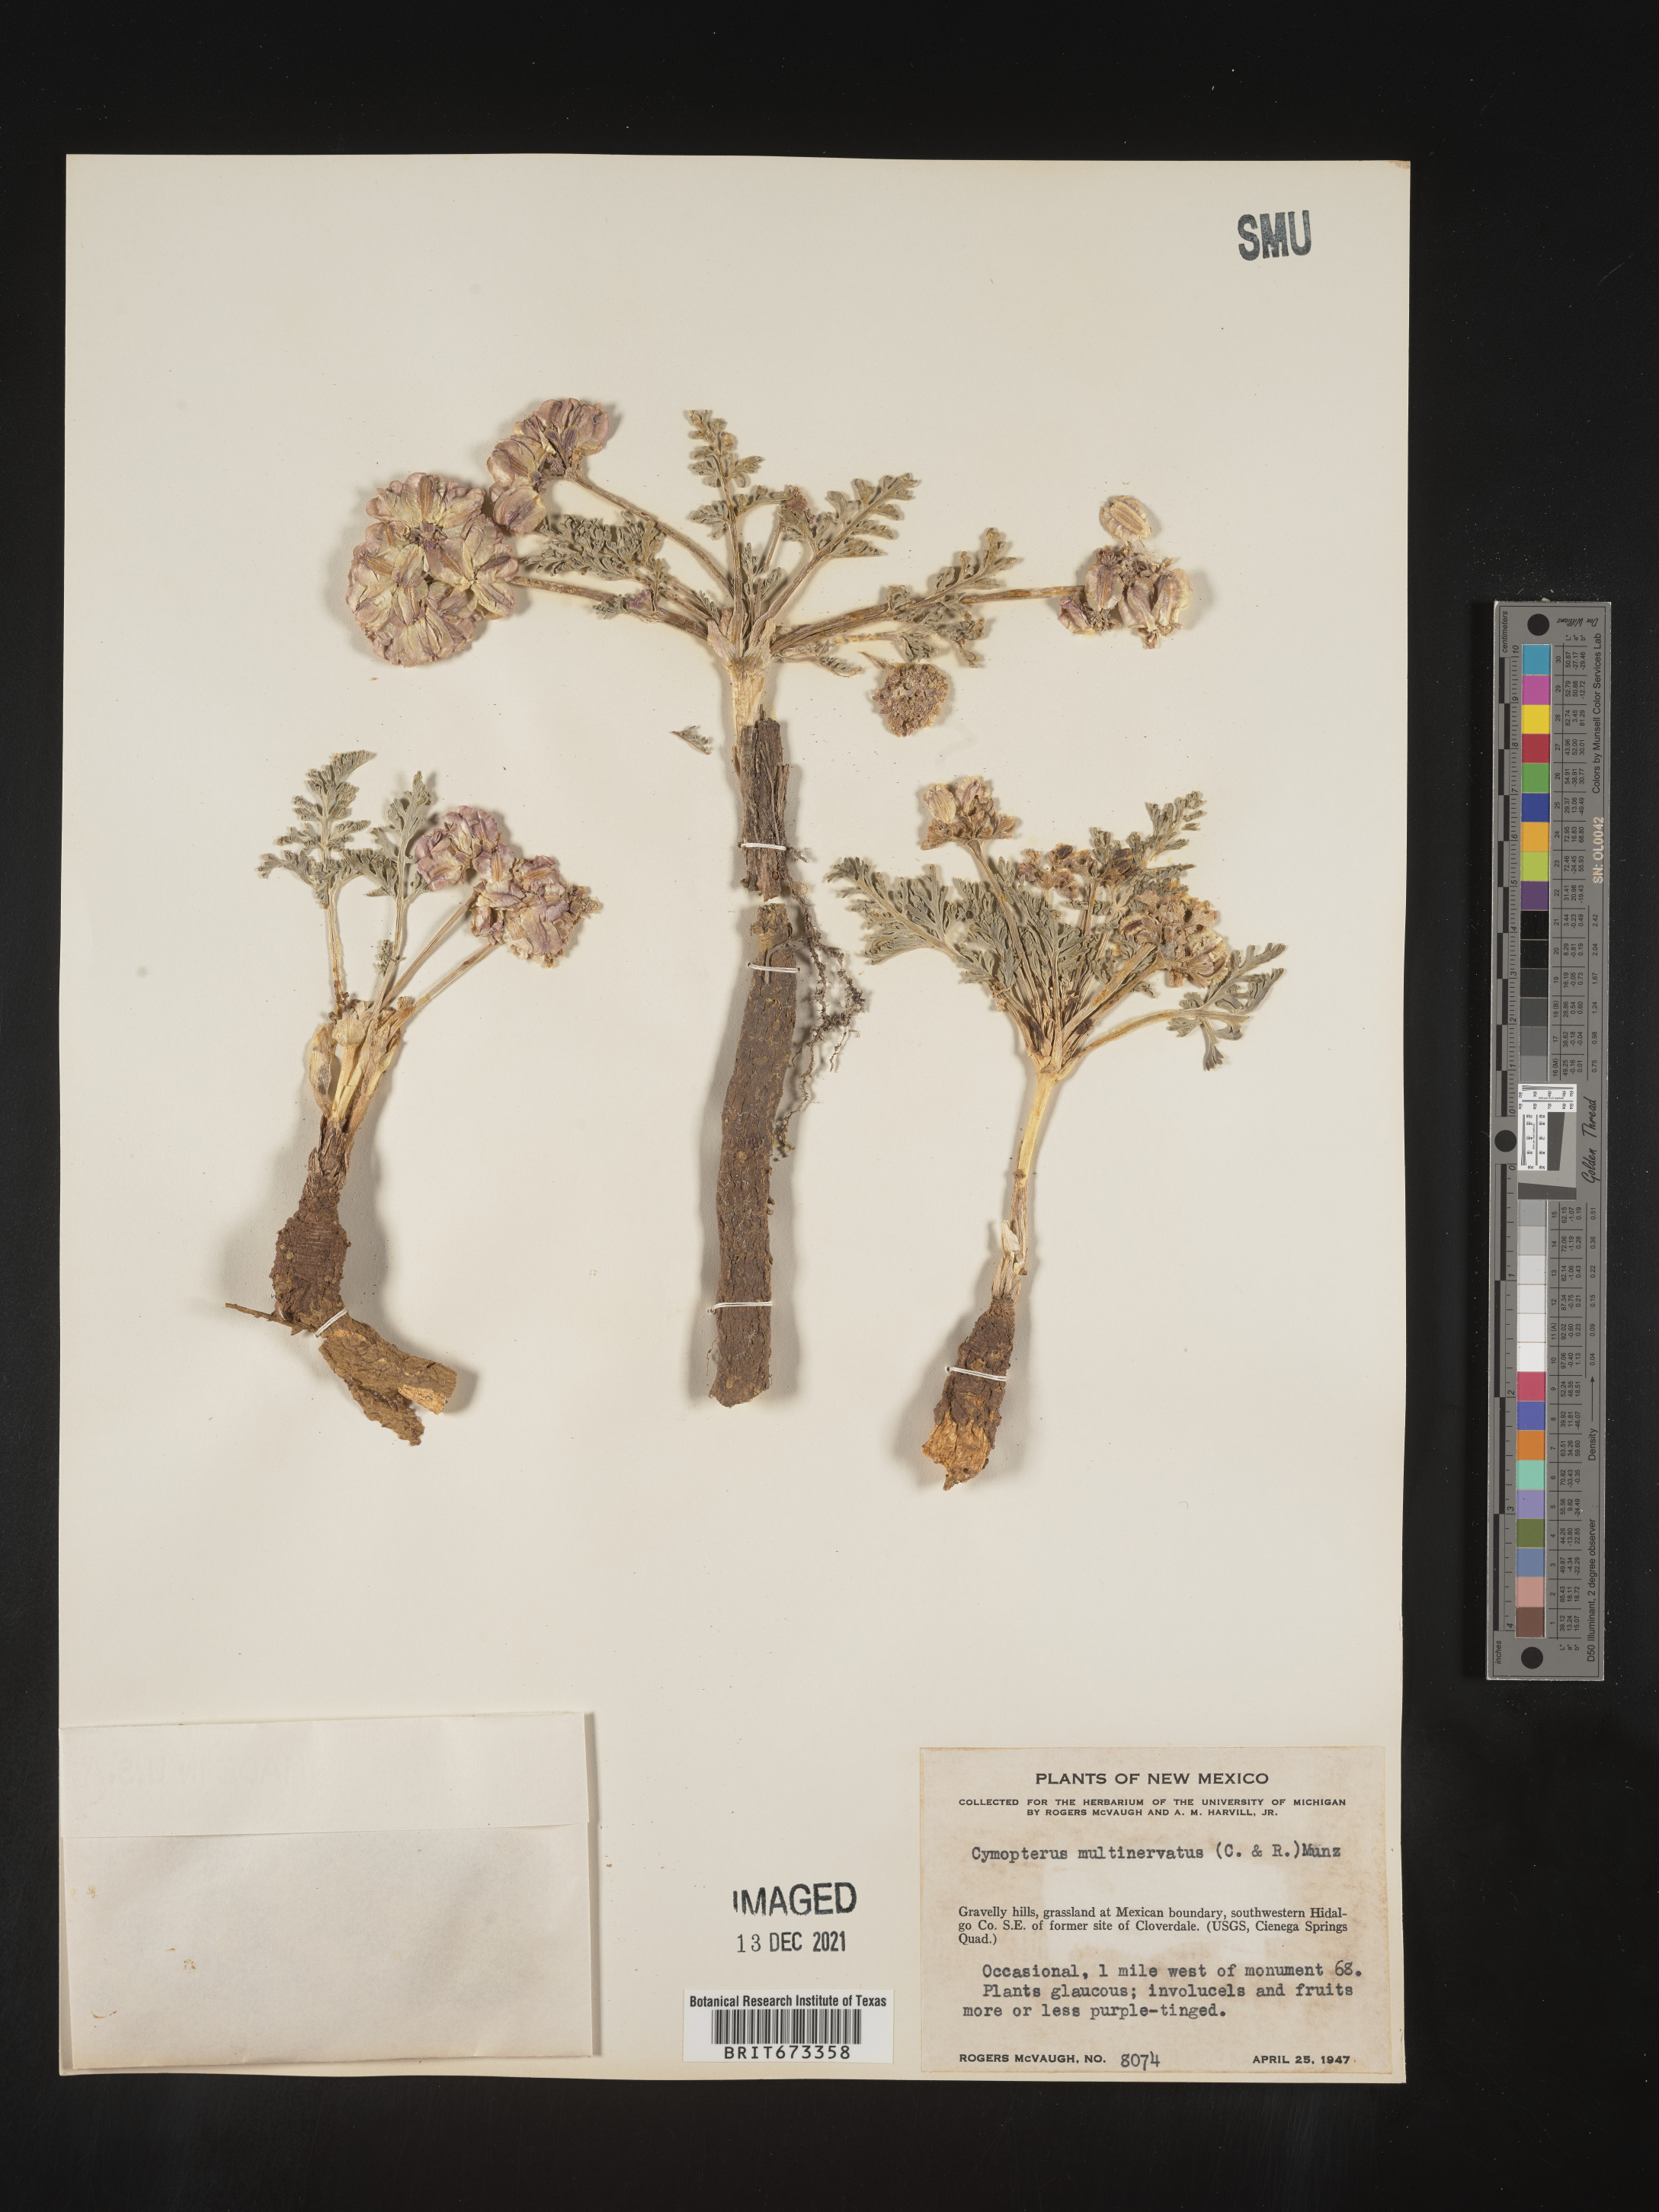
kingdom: Plantae
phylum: Tracheophyta
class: Magnoliopsida
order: Apiales
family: Apiaceae
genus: Vesper
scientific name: Vesper multinervatus
